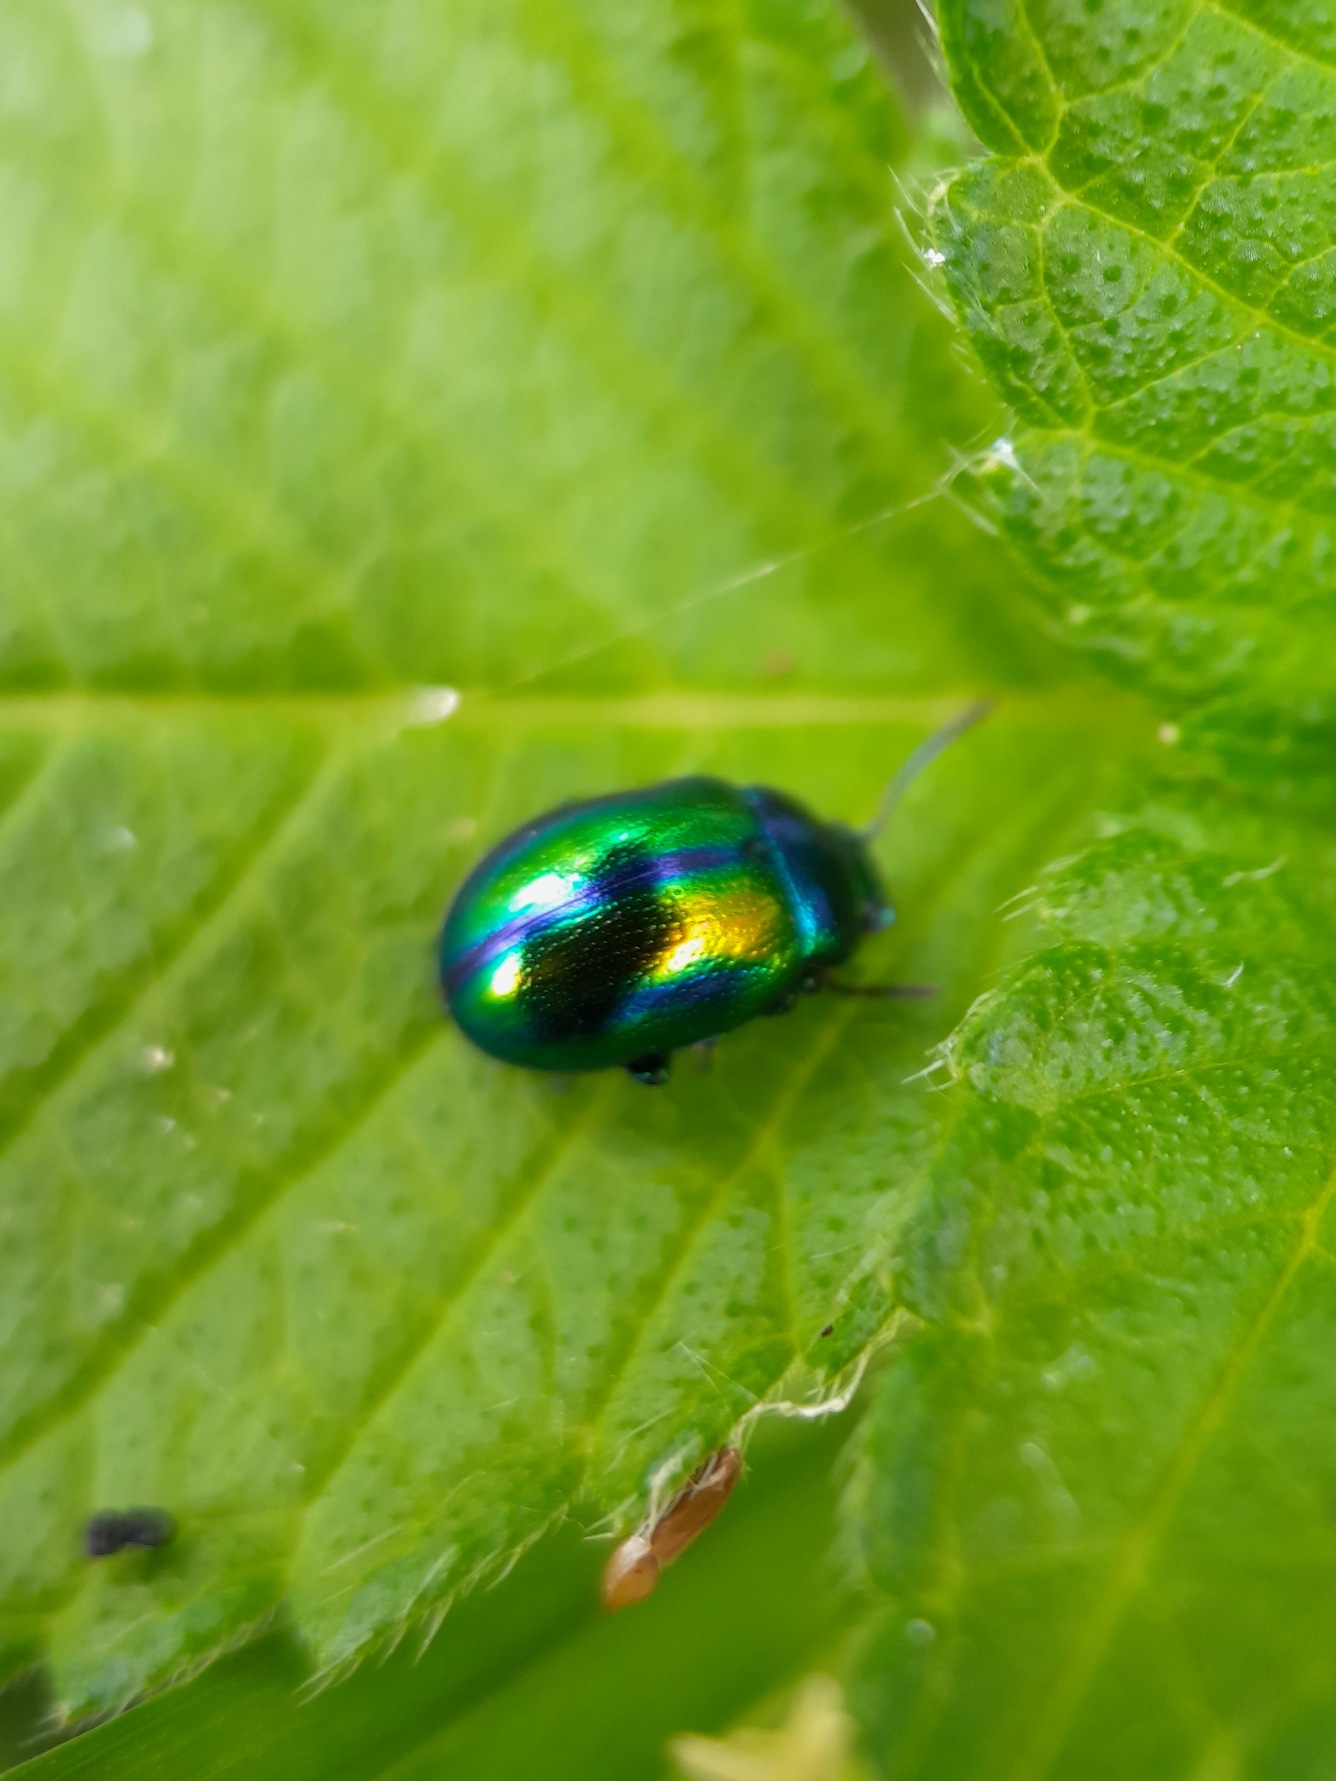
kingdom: Animalia
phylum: Arthropoda
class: Insecta
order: Coleoptera
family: Chrysomelidae
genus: Chrysolina
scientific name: Chrysolina fastuosa
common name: Tvetandbladbille
